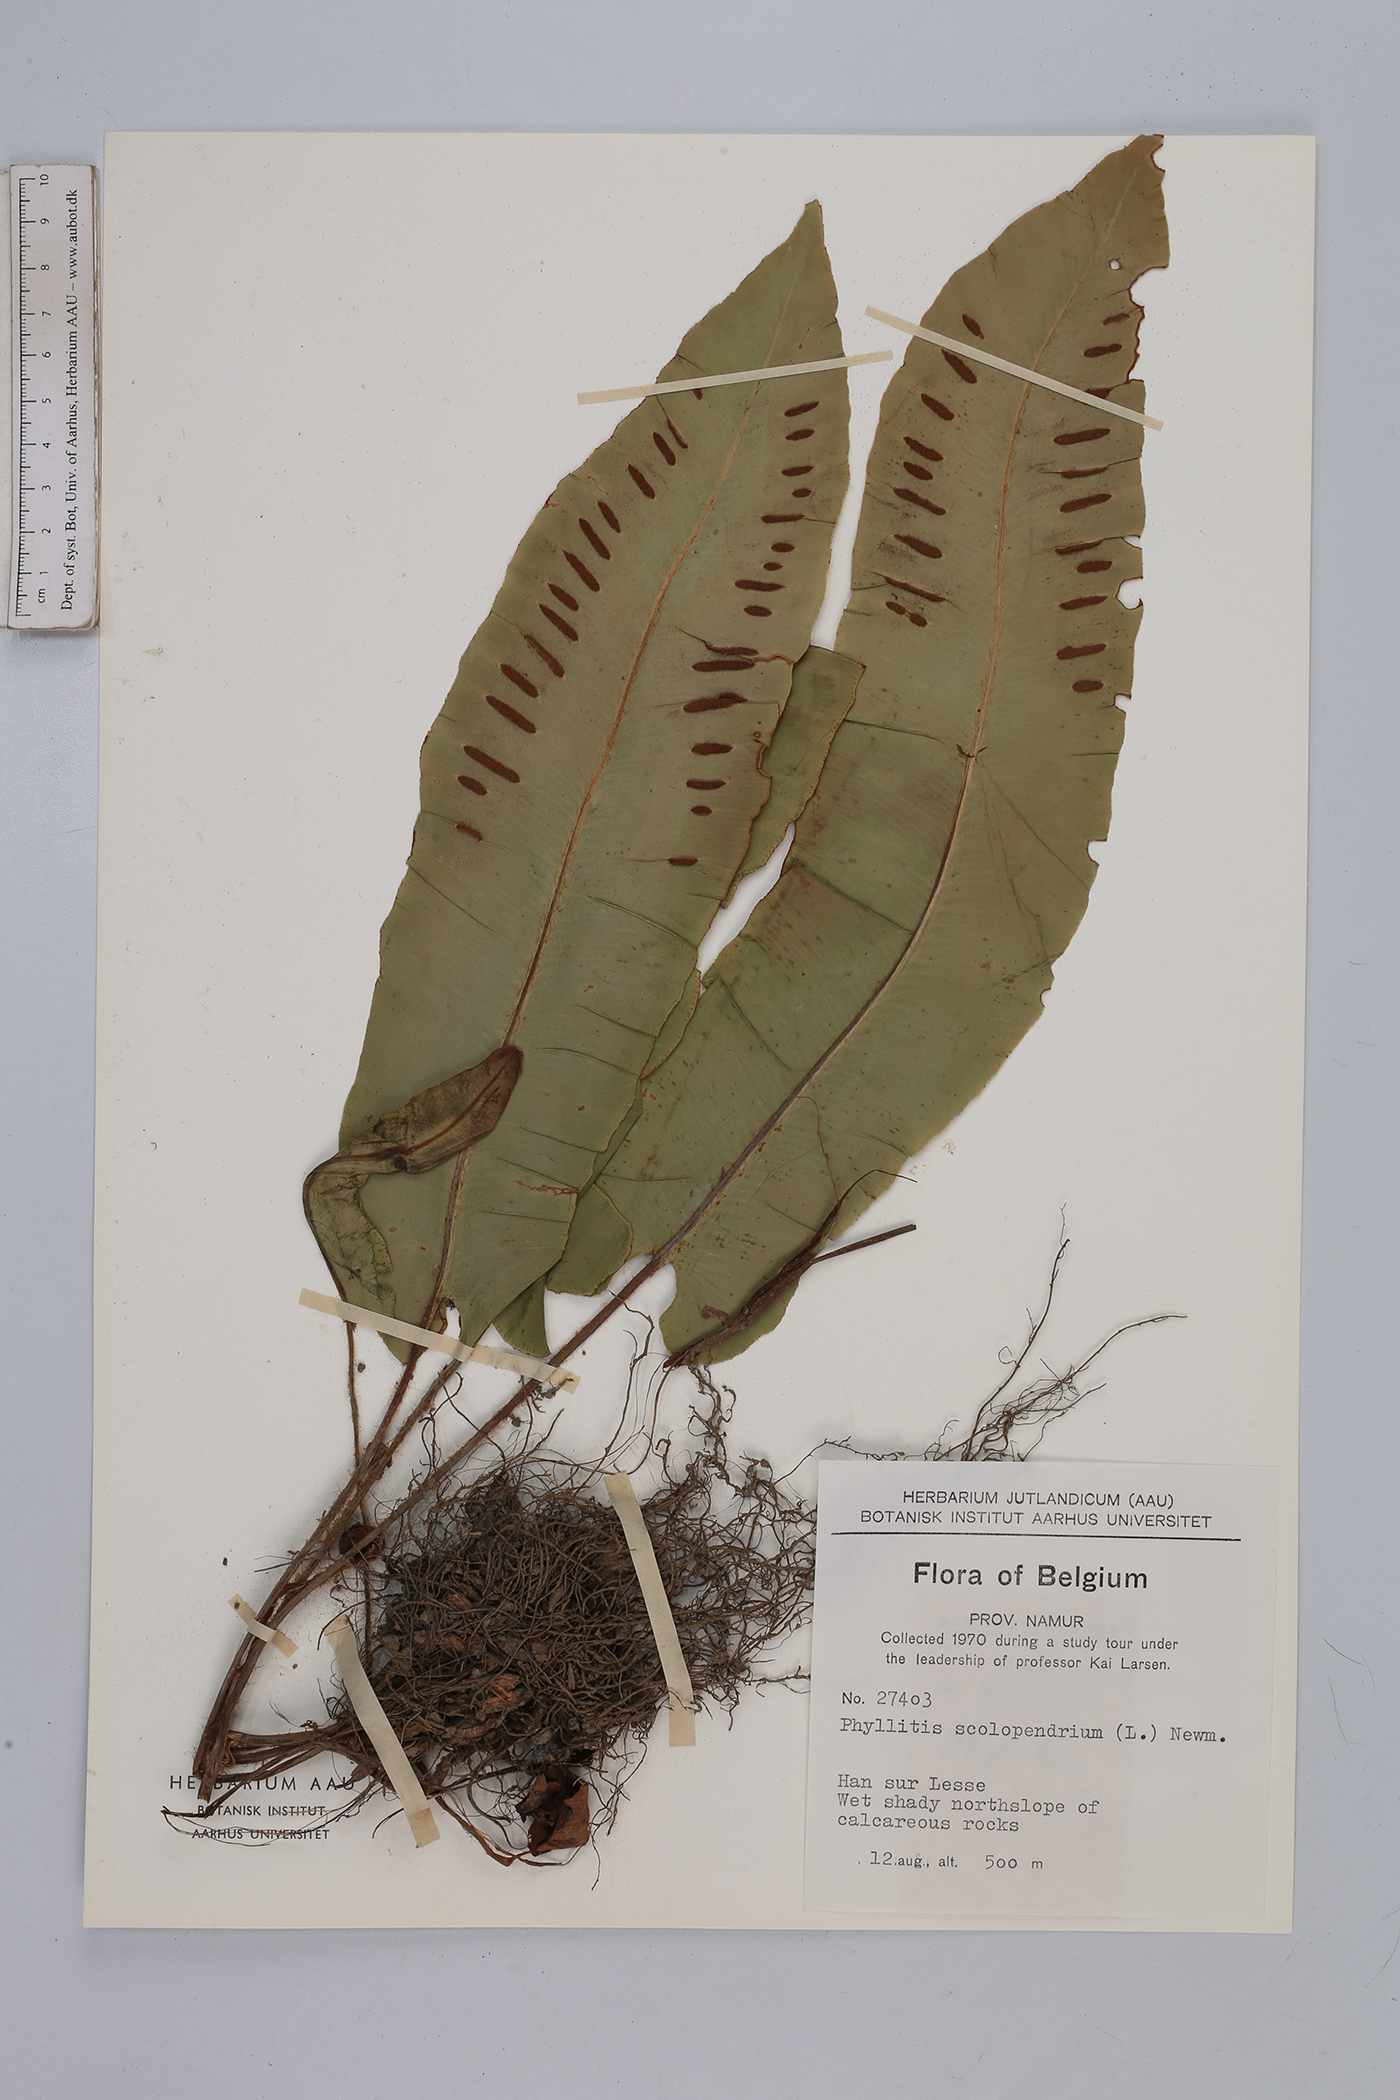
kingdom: Plantae
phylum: Tracheophyta
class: Polypodiopsida
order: Polypodiales
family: Aspleniaceae
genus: Asplenium
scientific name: Asplenium scolopendrium
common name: Hart's-tongue fern
